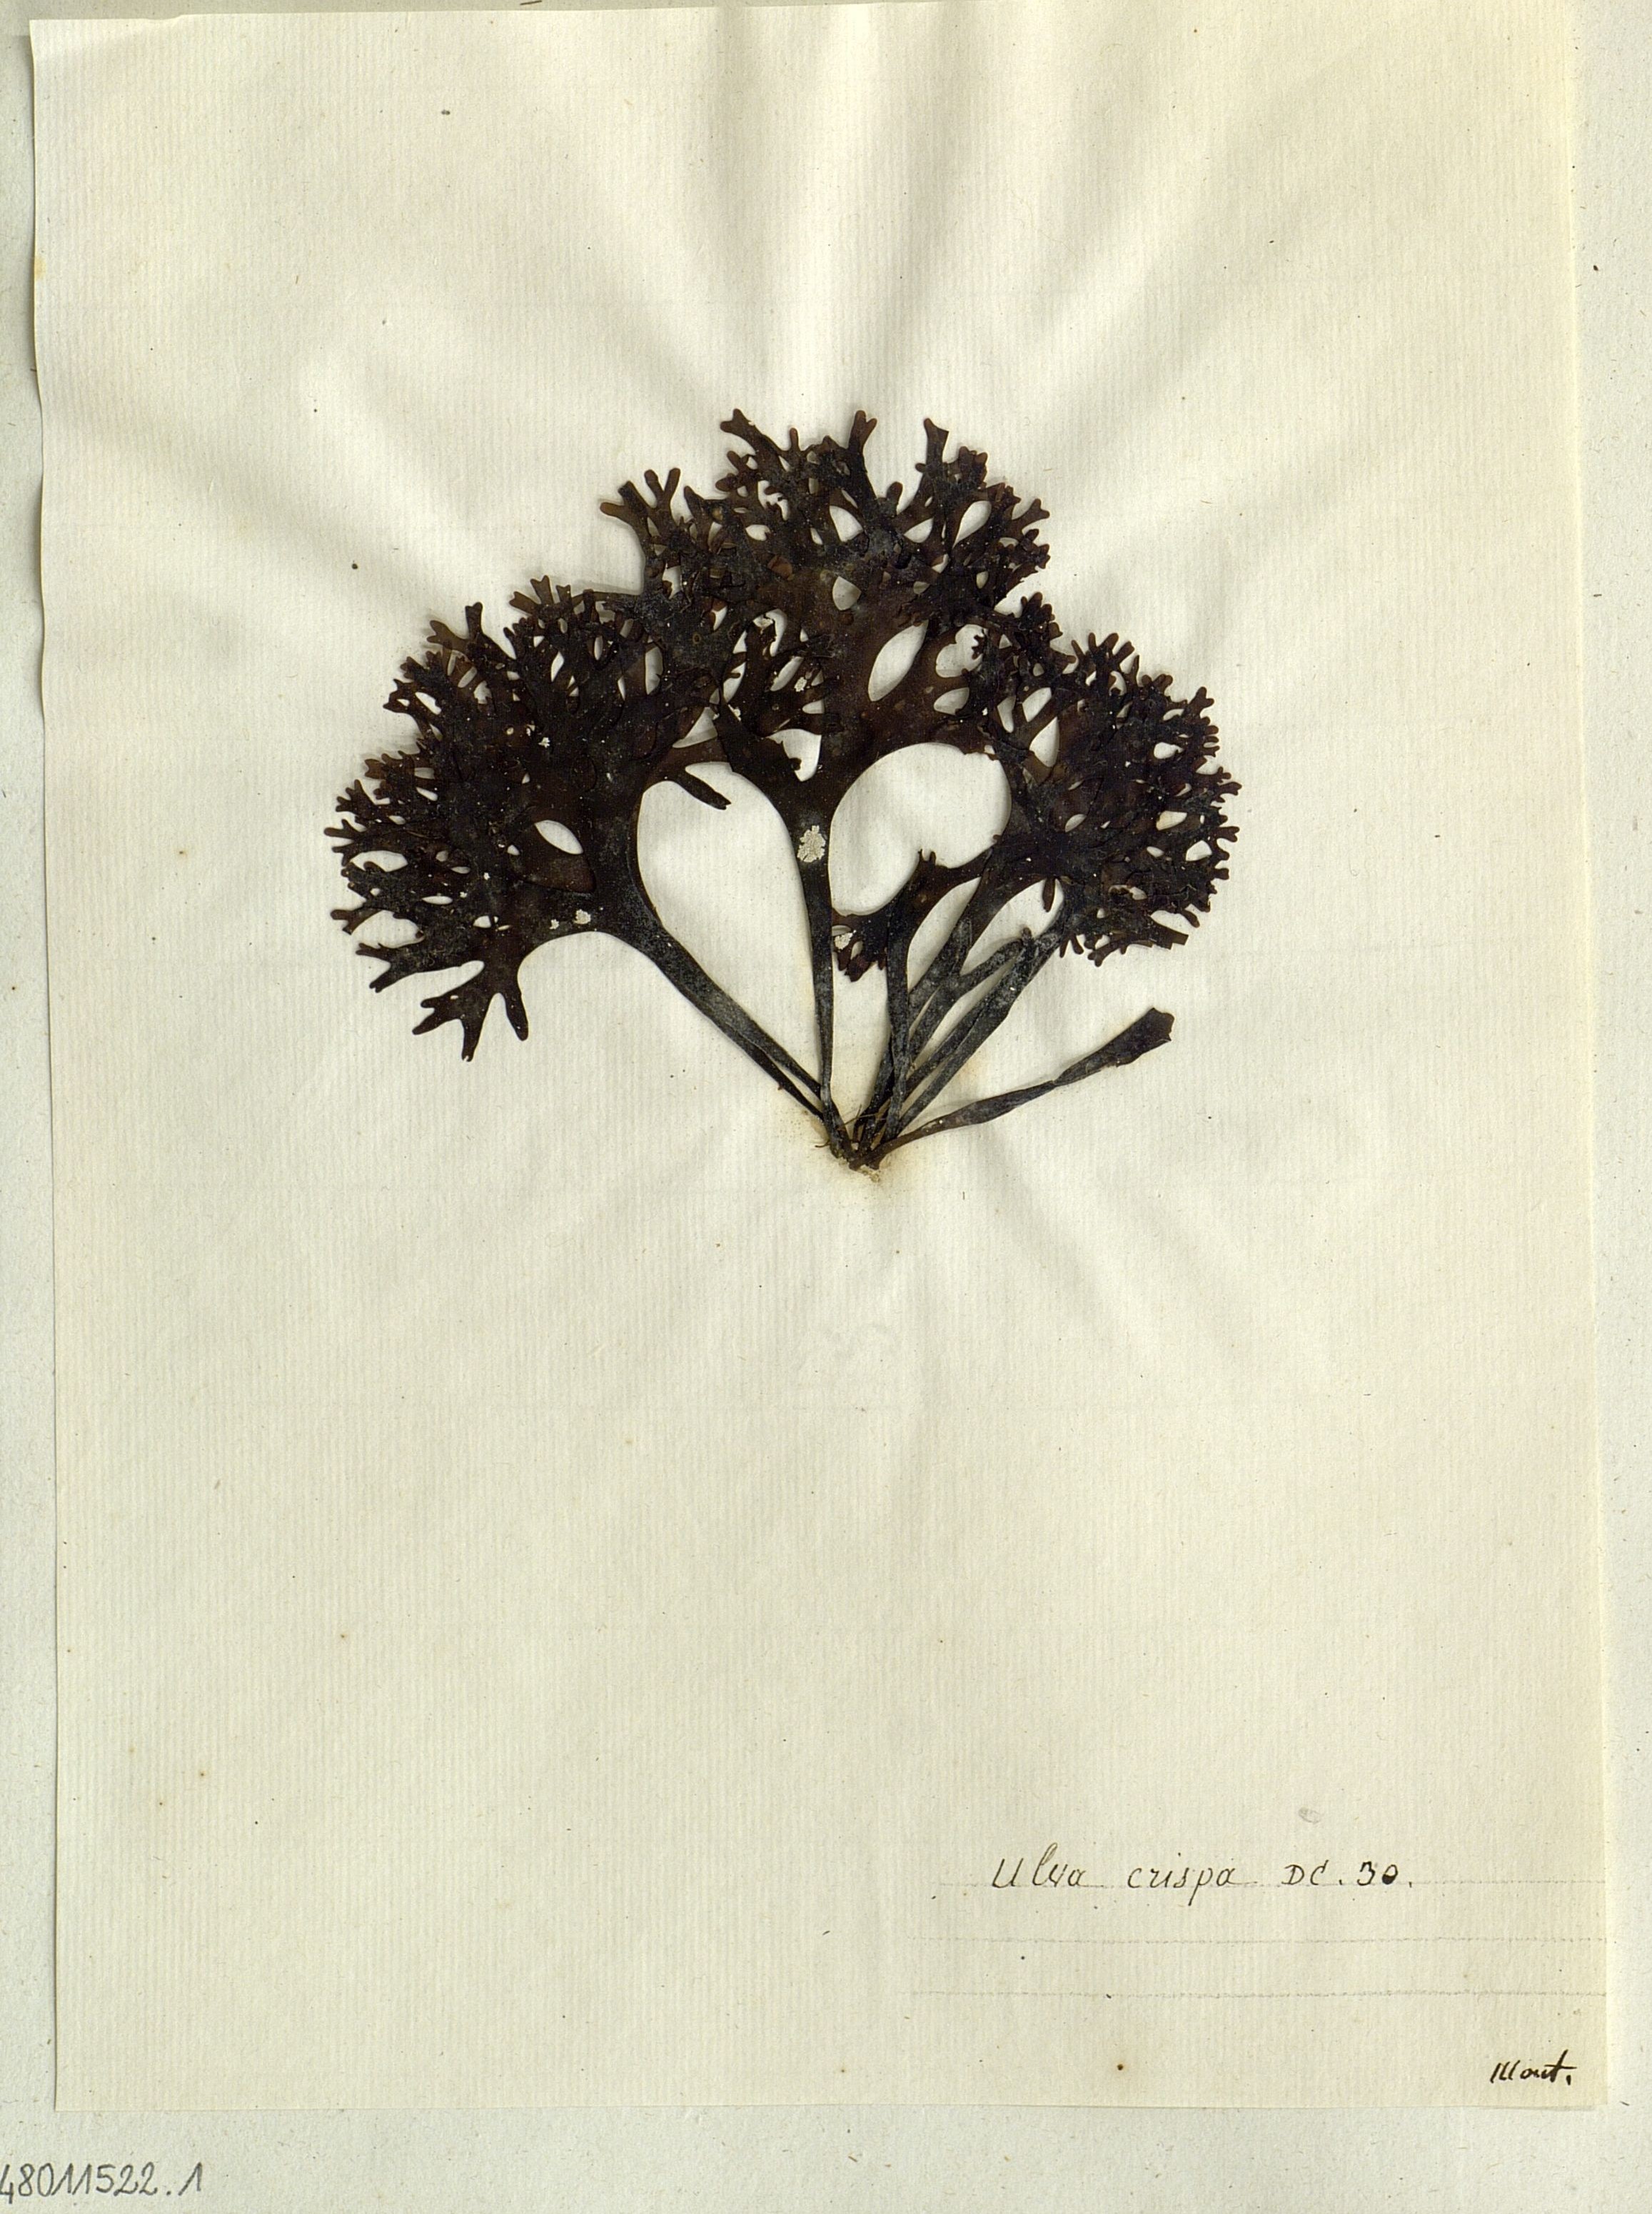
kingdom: Plantae
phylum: Chlorophyta
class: Ulvophyceae
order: Ulvales
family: Ulvaceae
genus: Ulva
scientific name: Ulva
